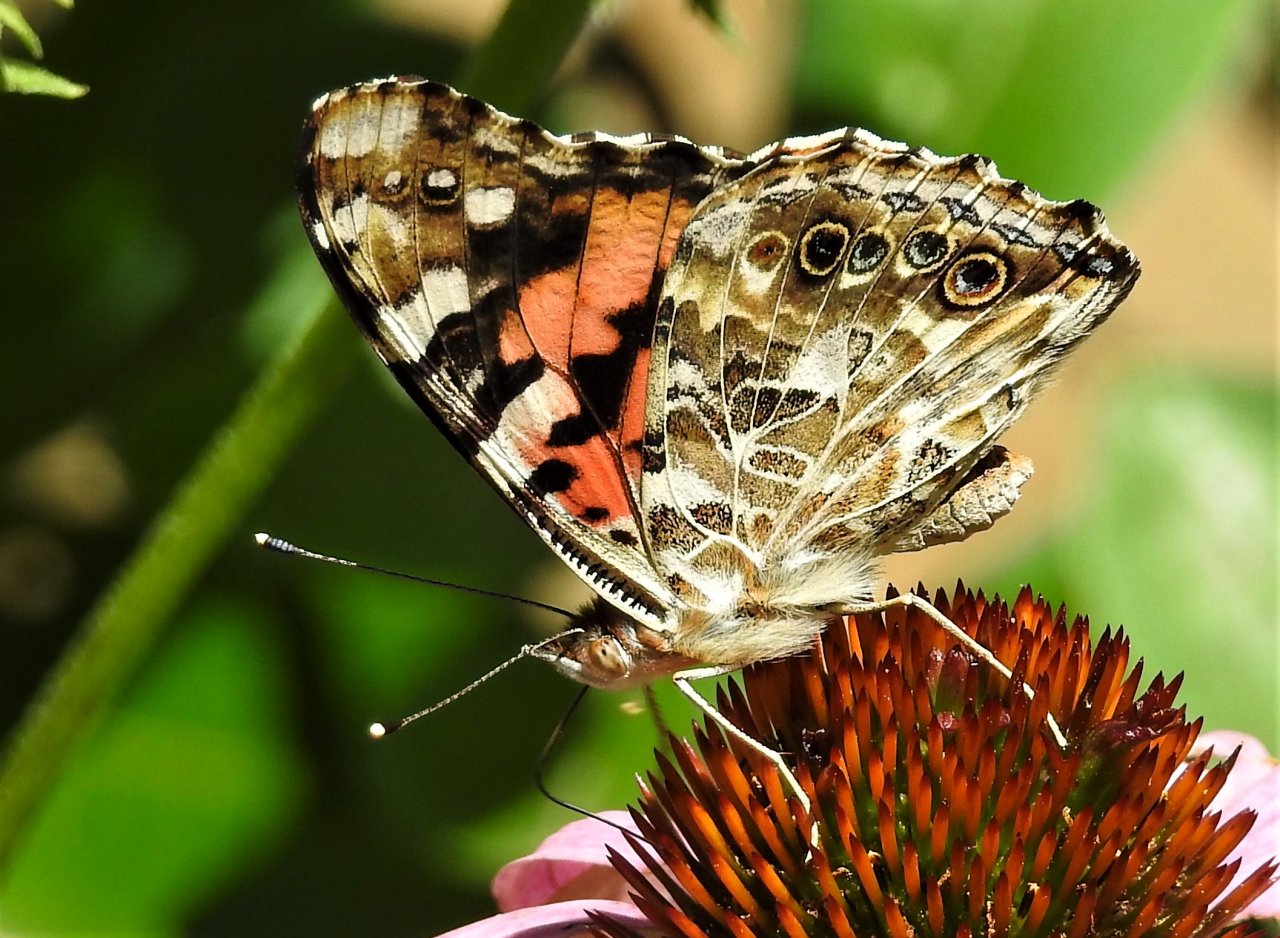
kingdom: Animalia
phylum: Arthropoda
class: Insecta
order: Lepidoptera
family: Nymphalidae
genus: Vanessa
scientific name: Vanessa cardui
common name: Painted Lady
